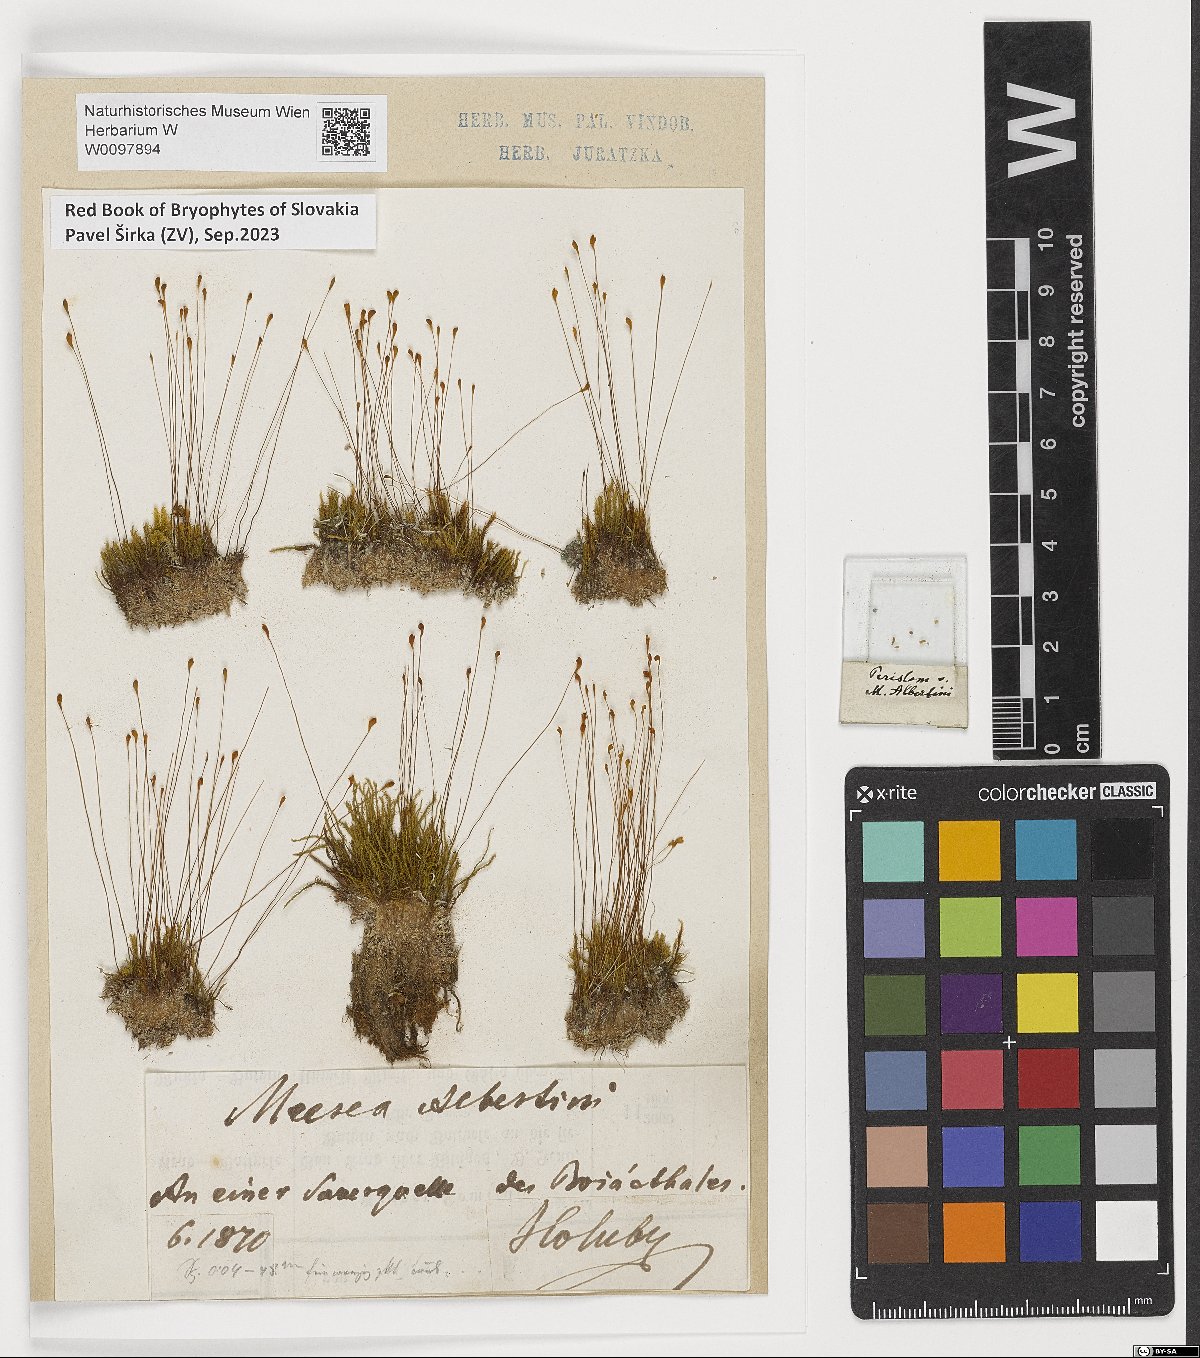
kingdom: Plantae
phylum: Bryophyta
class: Bryopsida
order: Splachnales
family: Meesiaceae
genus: Meesia
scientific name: Meesia hexasticha
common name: Triangular-leaved thread moss
